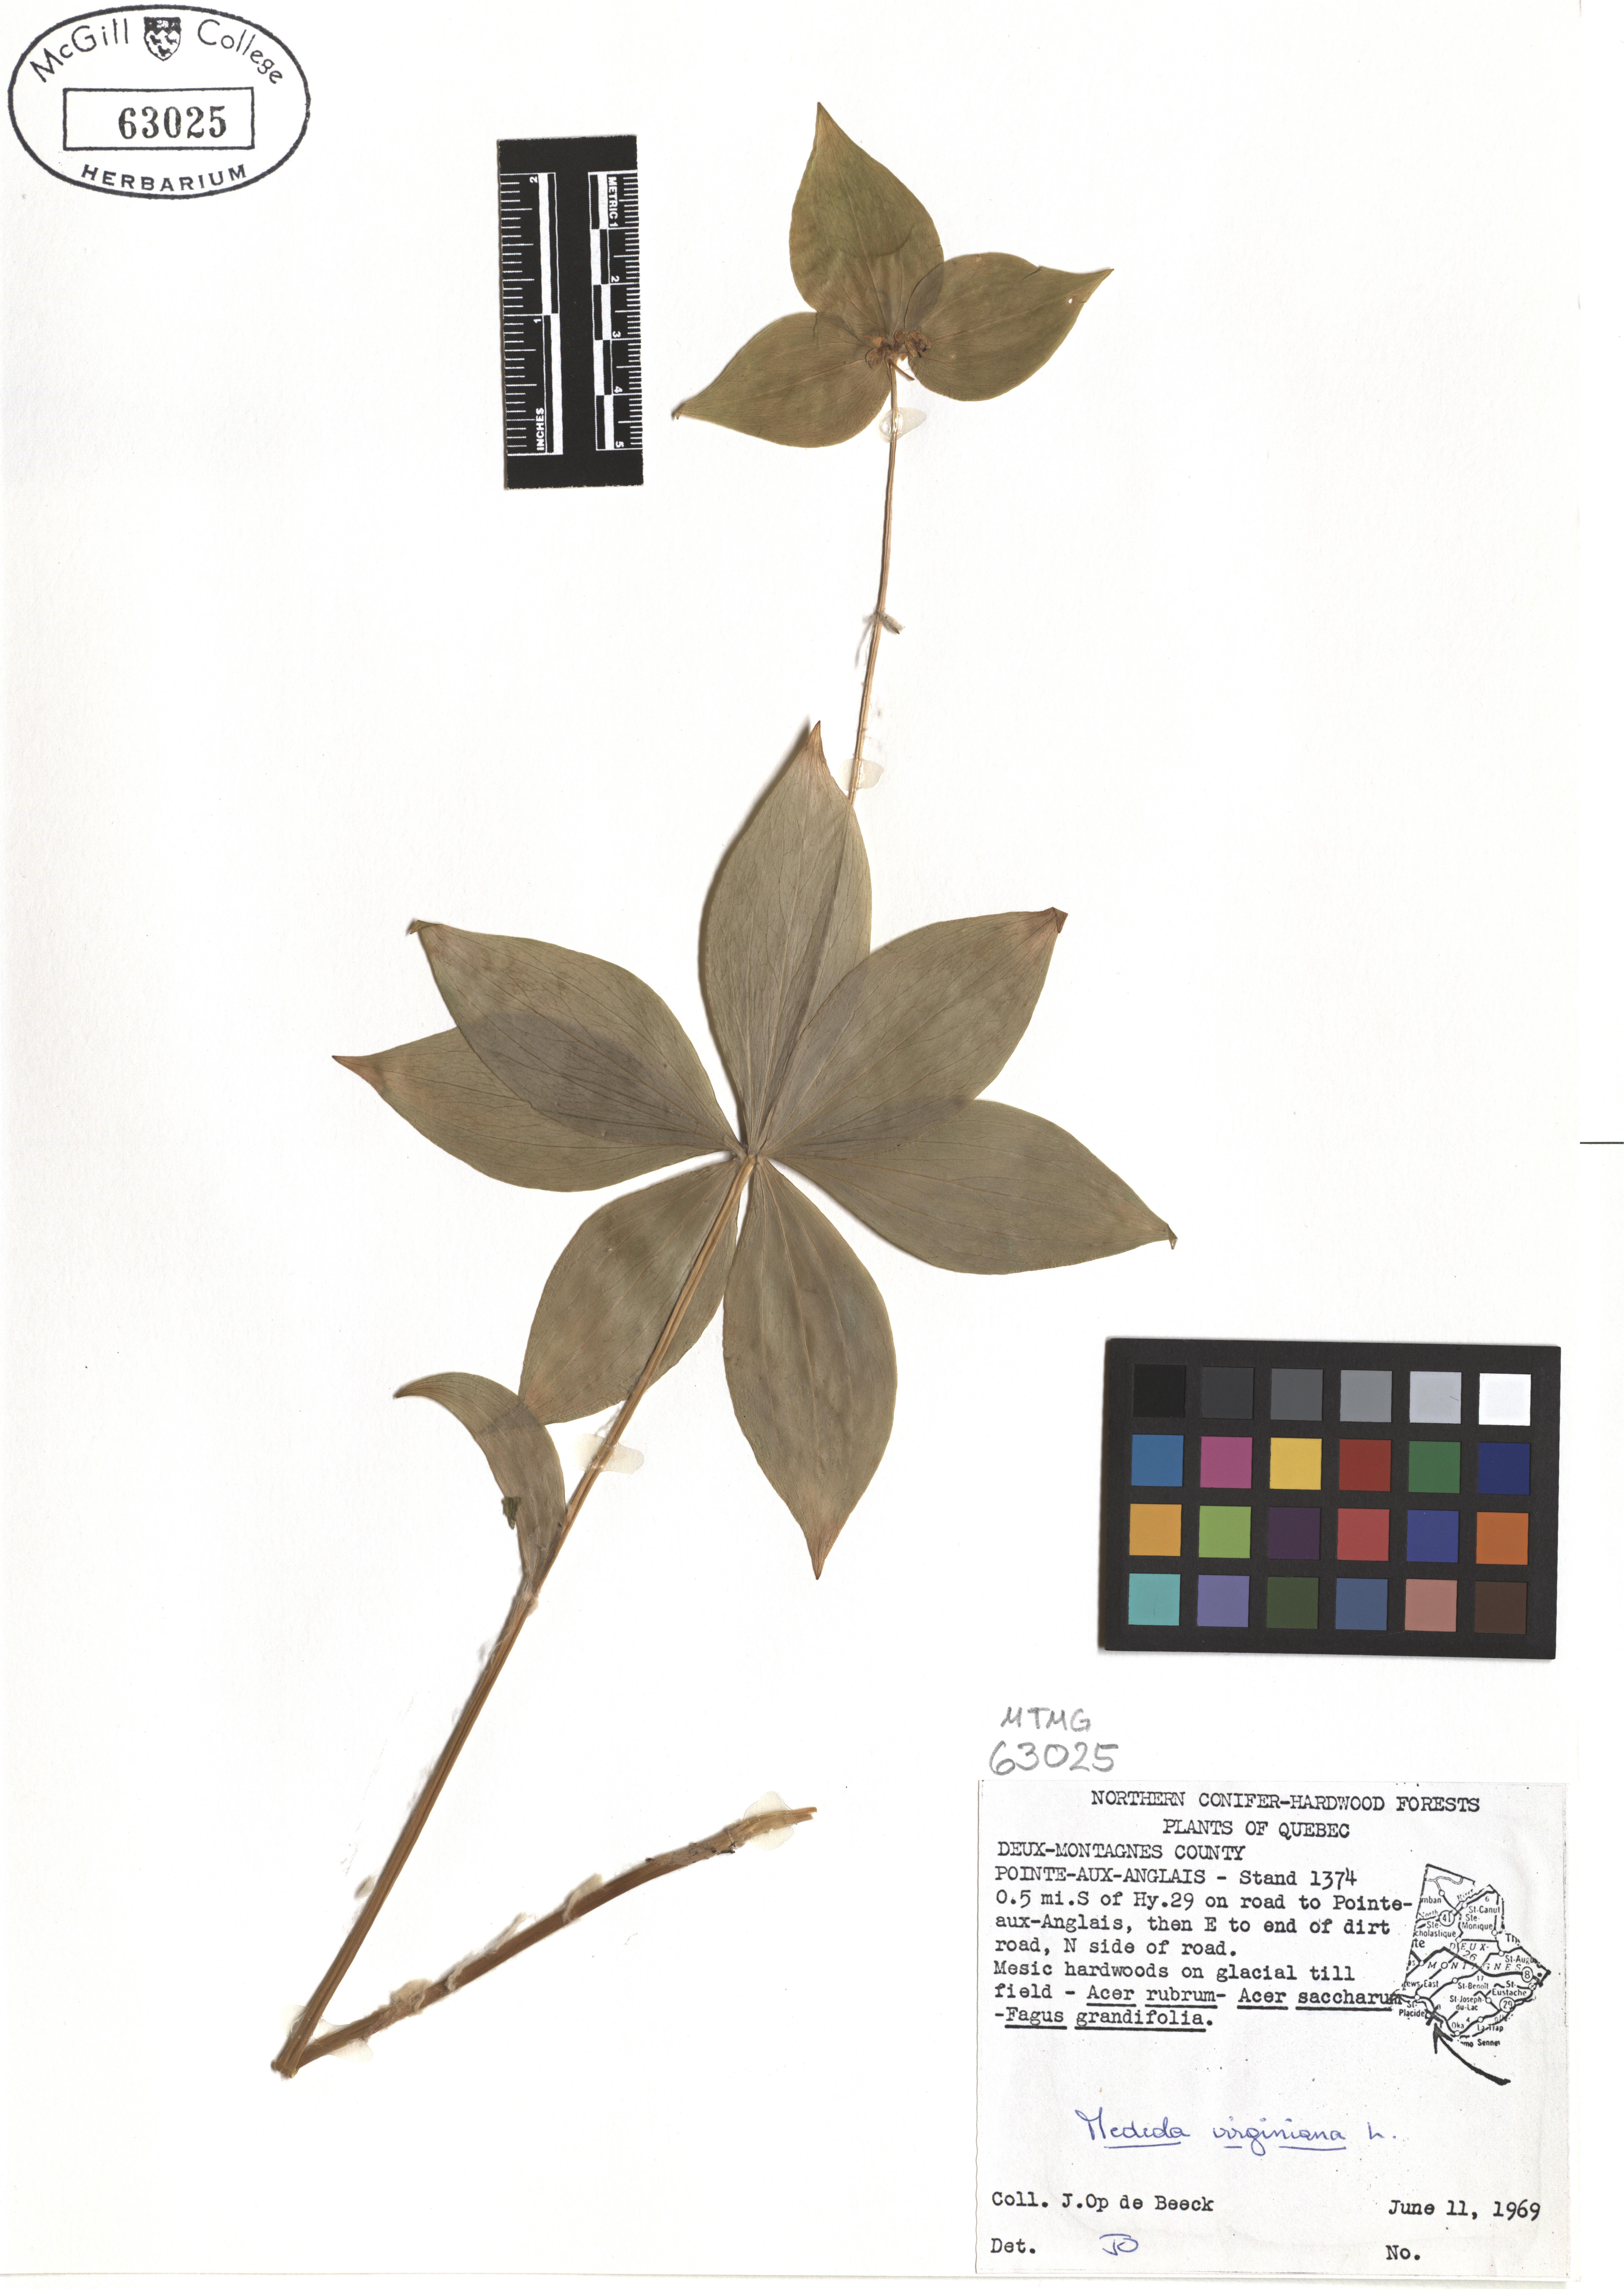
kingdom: Plantae
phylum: Tracheophyta
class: Liliopsida
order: Liliales
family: Liliaceae
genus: Medeola
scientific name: Medeola virginiana
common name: Indian cucumber-root
